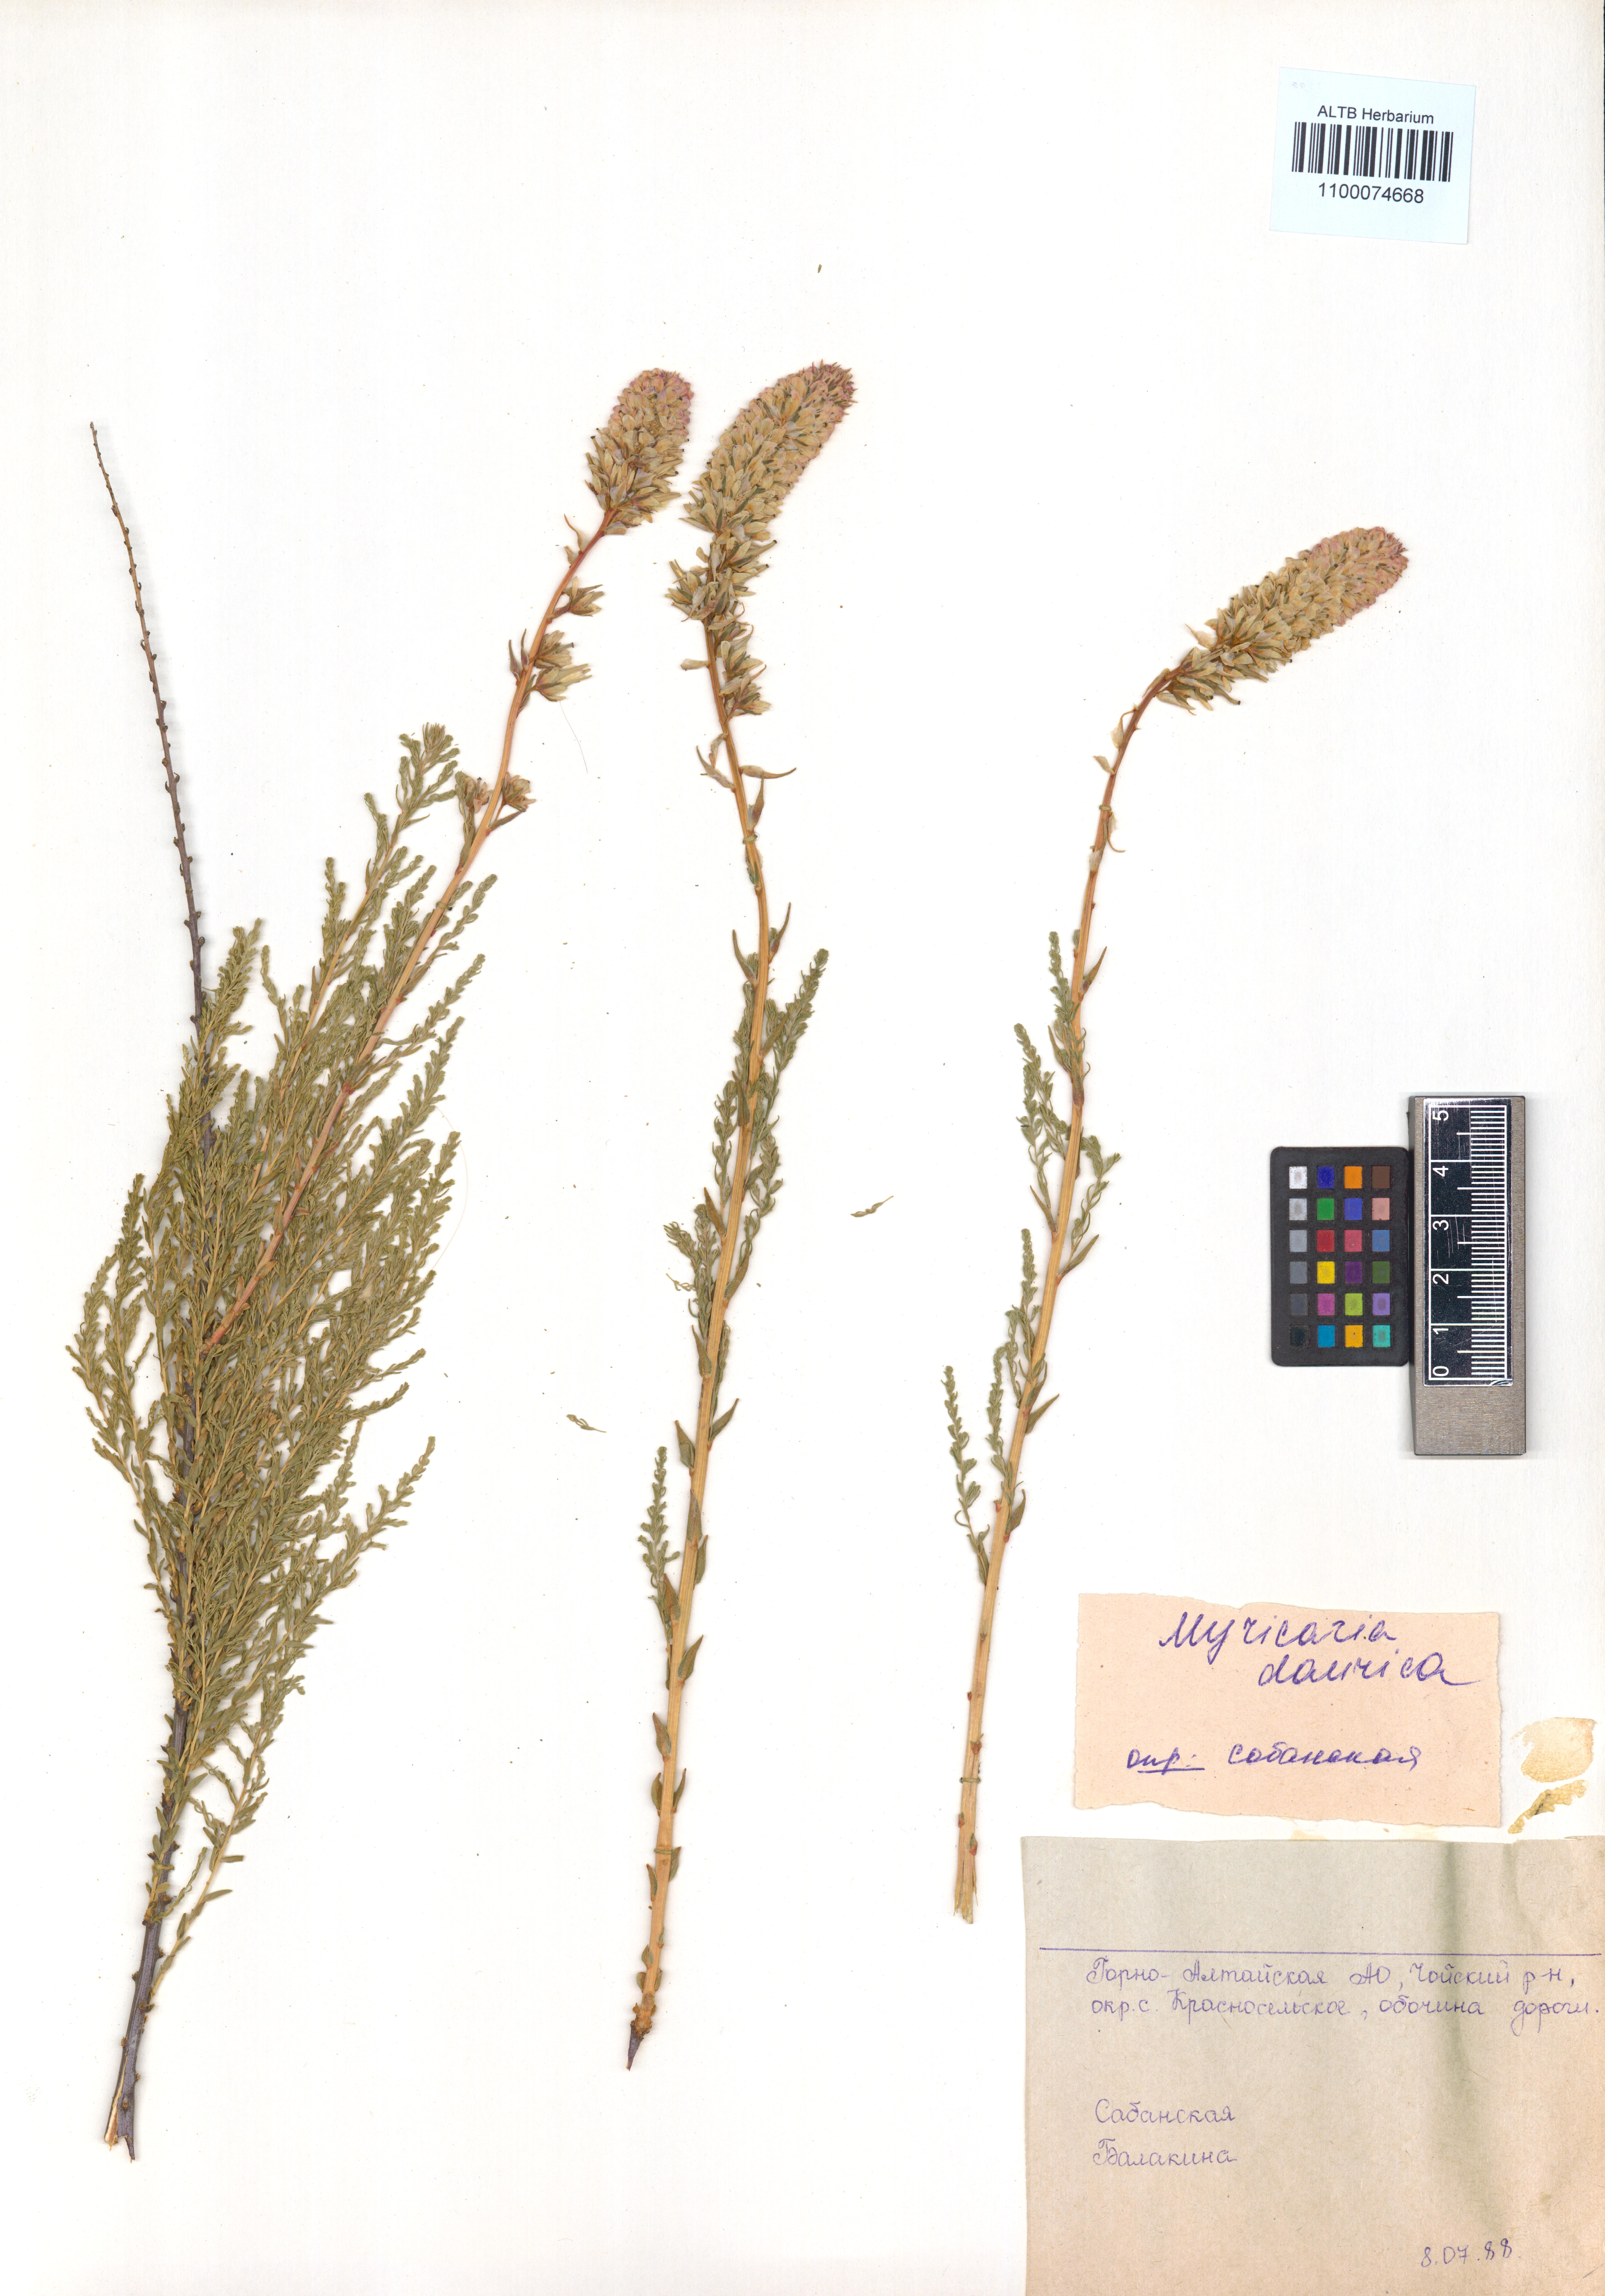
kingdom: Plantae
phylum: Tracheophyta
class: Magnoliopsida
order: Caryophyllales
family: Tamaricaceae
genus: Myricaria
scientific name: Myricaria davurica
